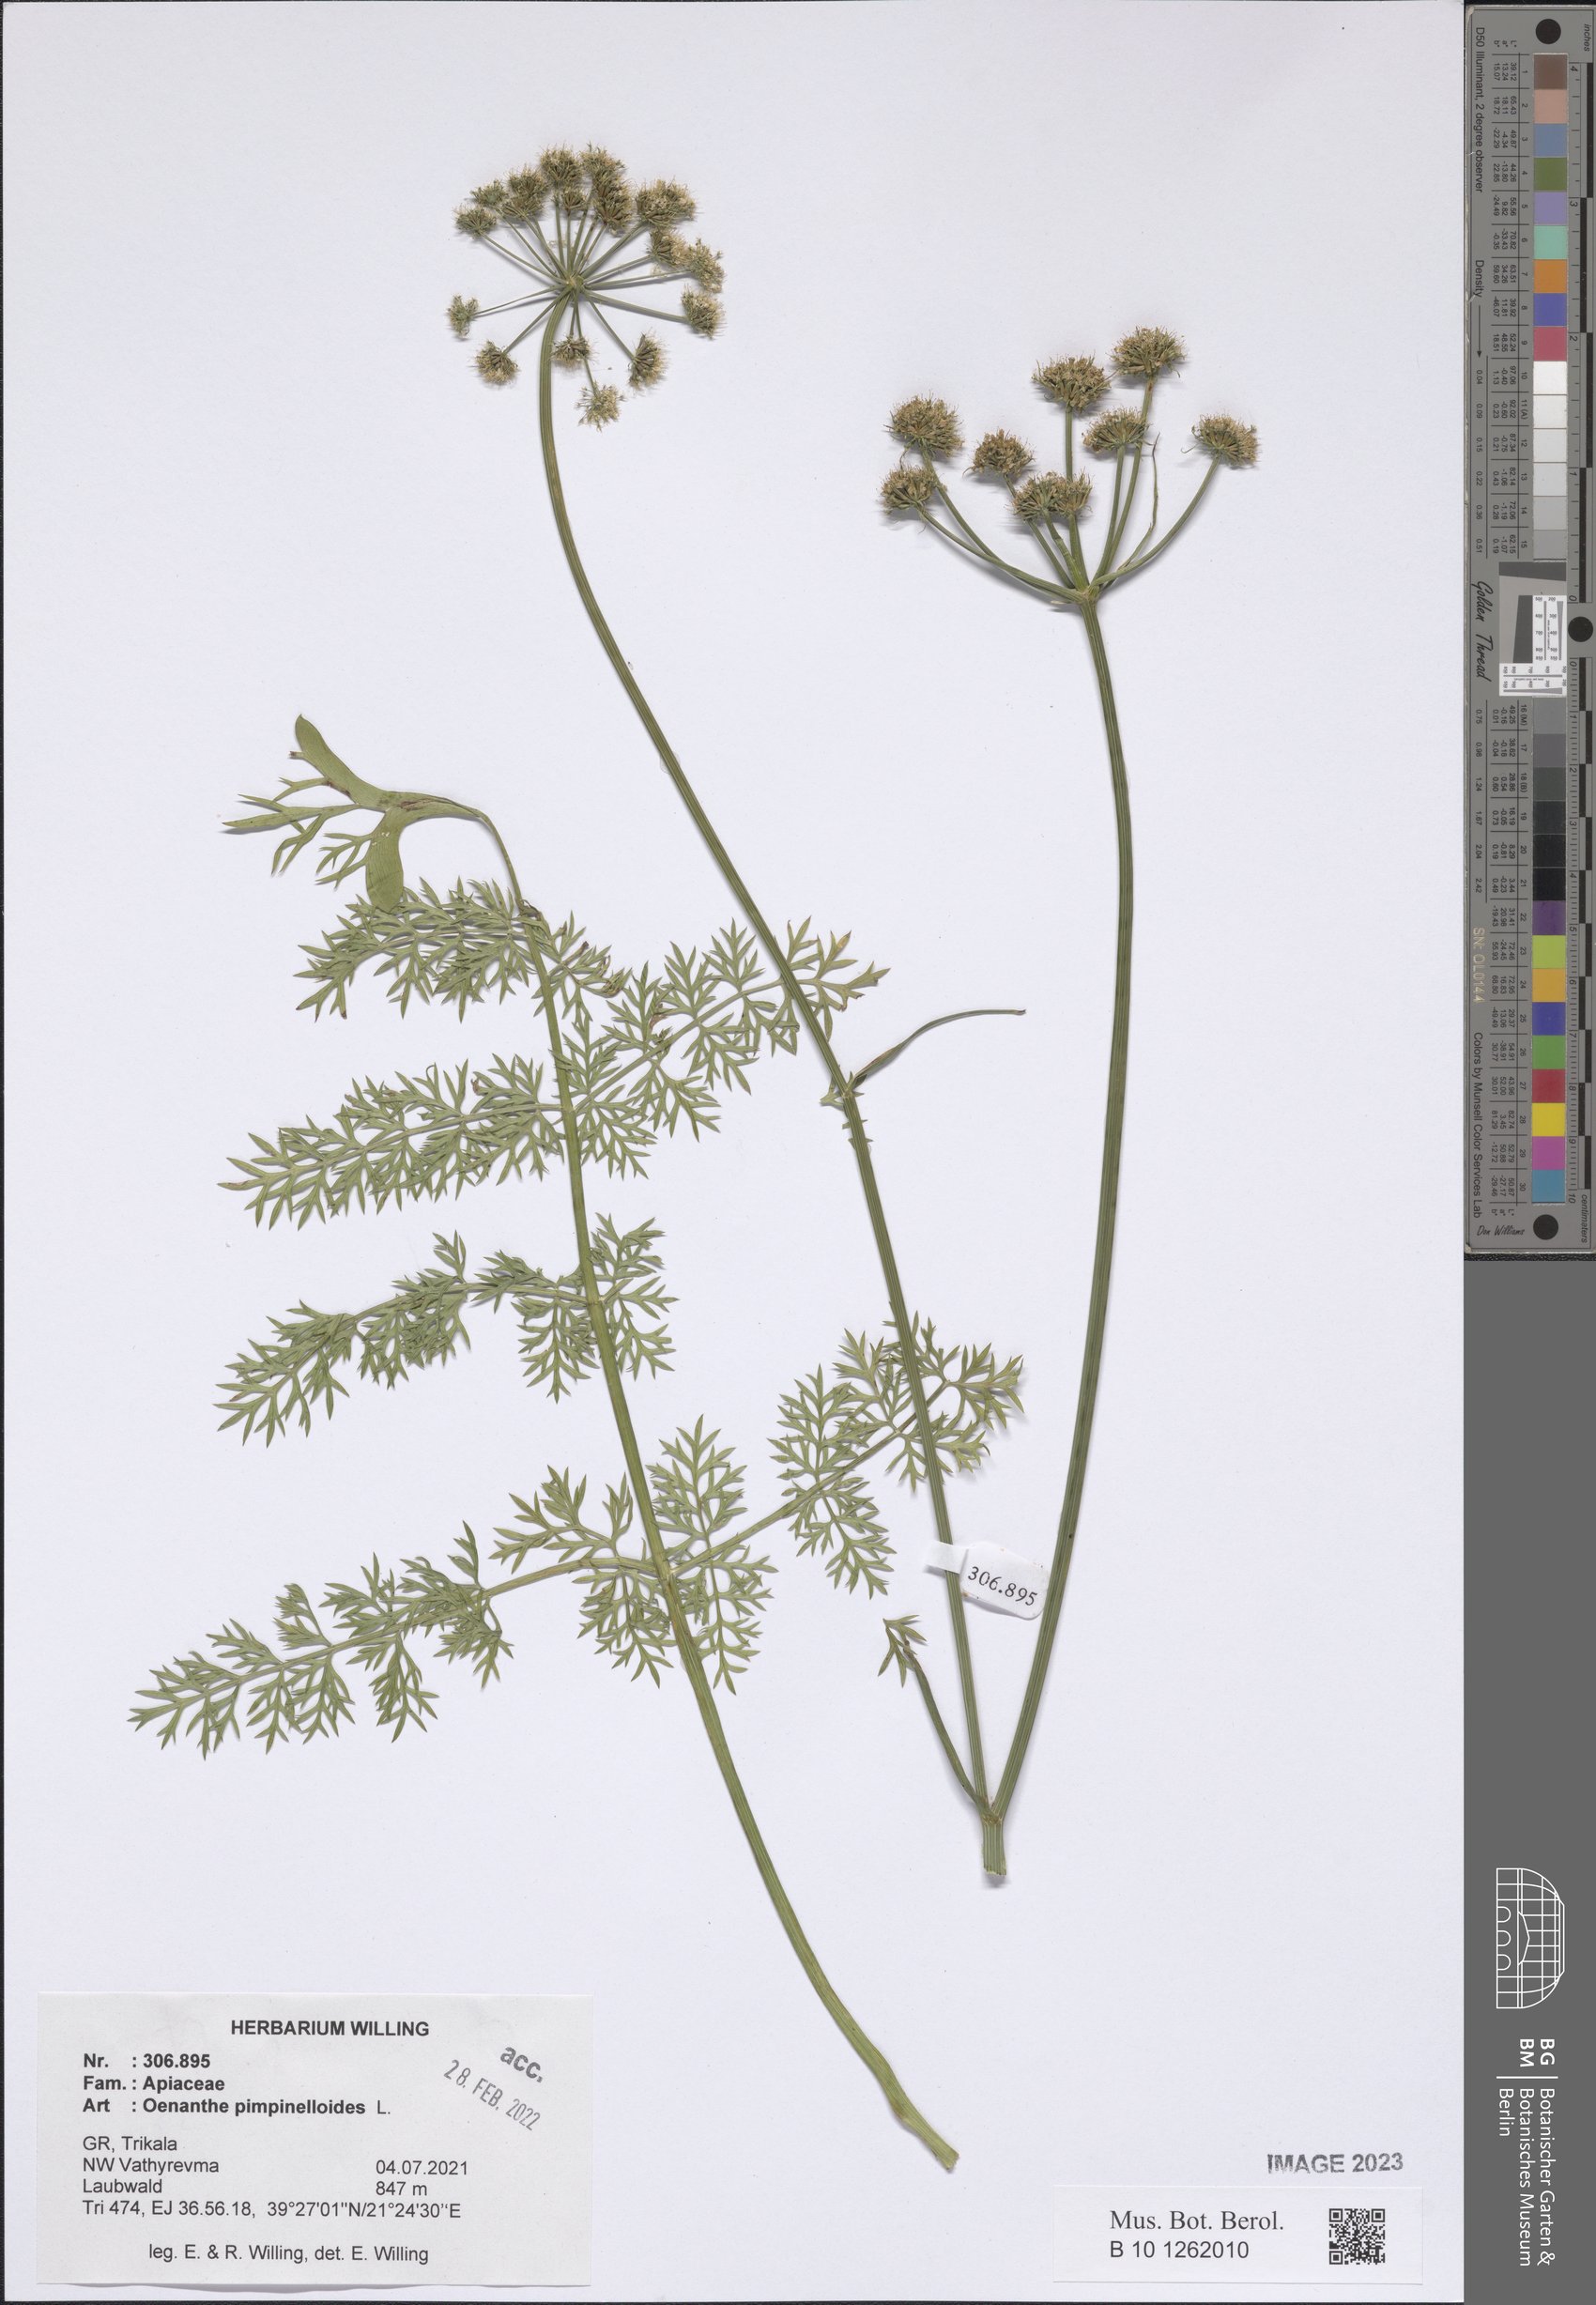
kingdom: Plantae
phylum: Tracheophyta
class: Magnoliopsida
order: Apiales
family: Apiaceae
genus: Oenanthe
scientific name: Oenanthe pimpinelloides
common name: Corky-fruited water-dropwort
